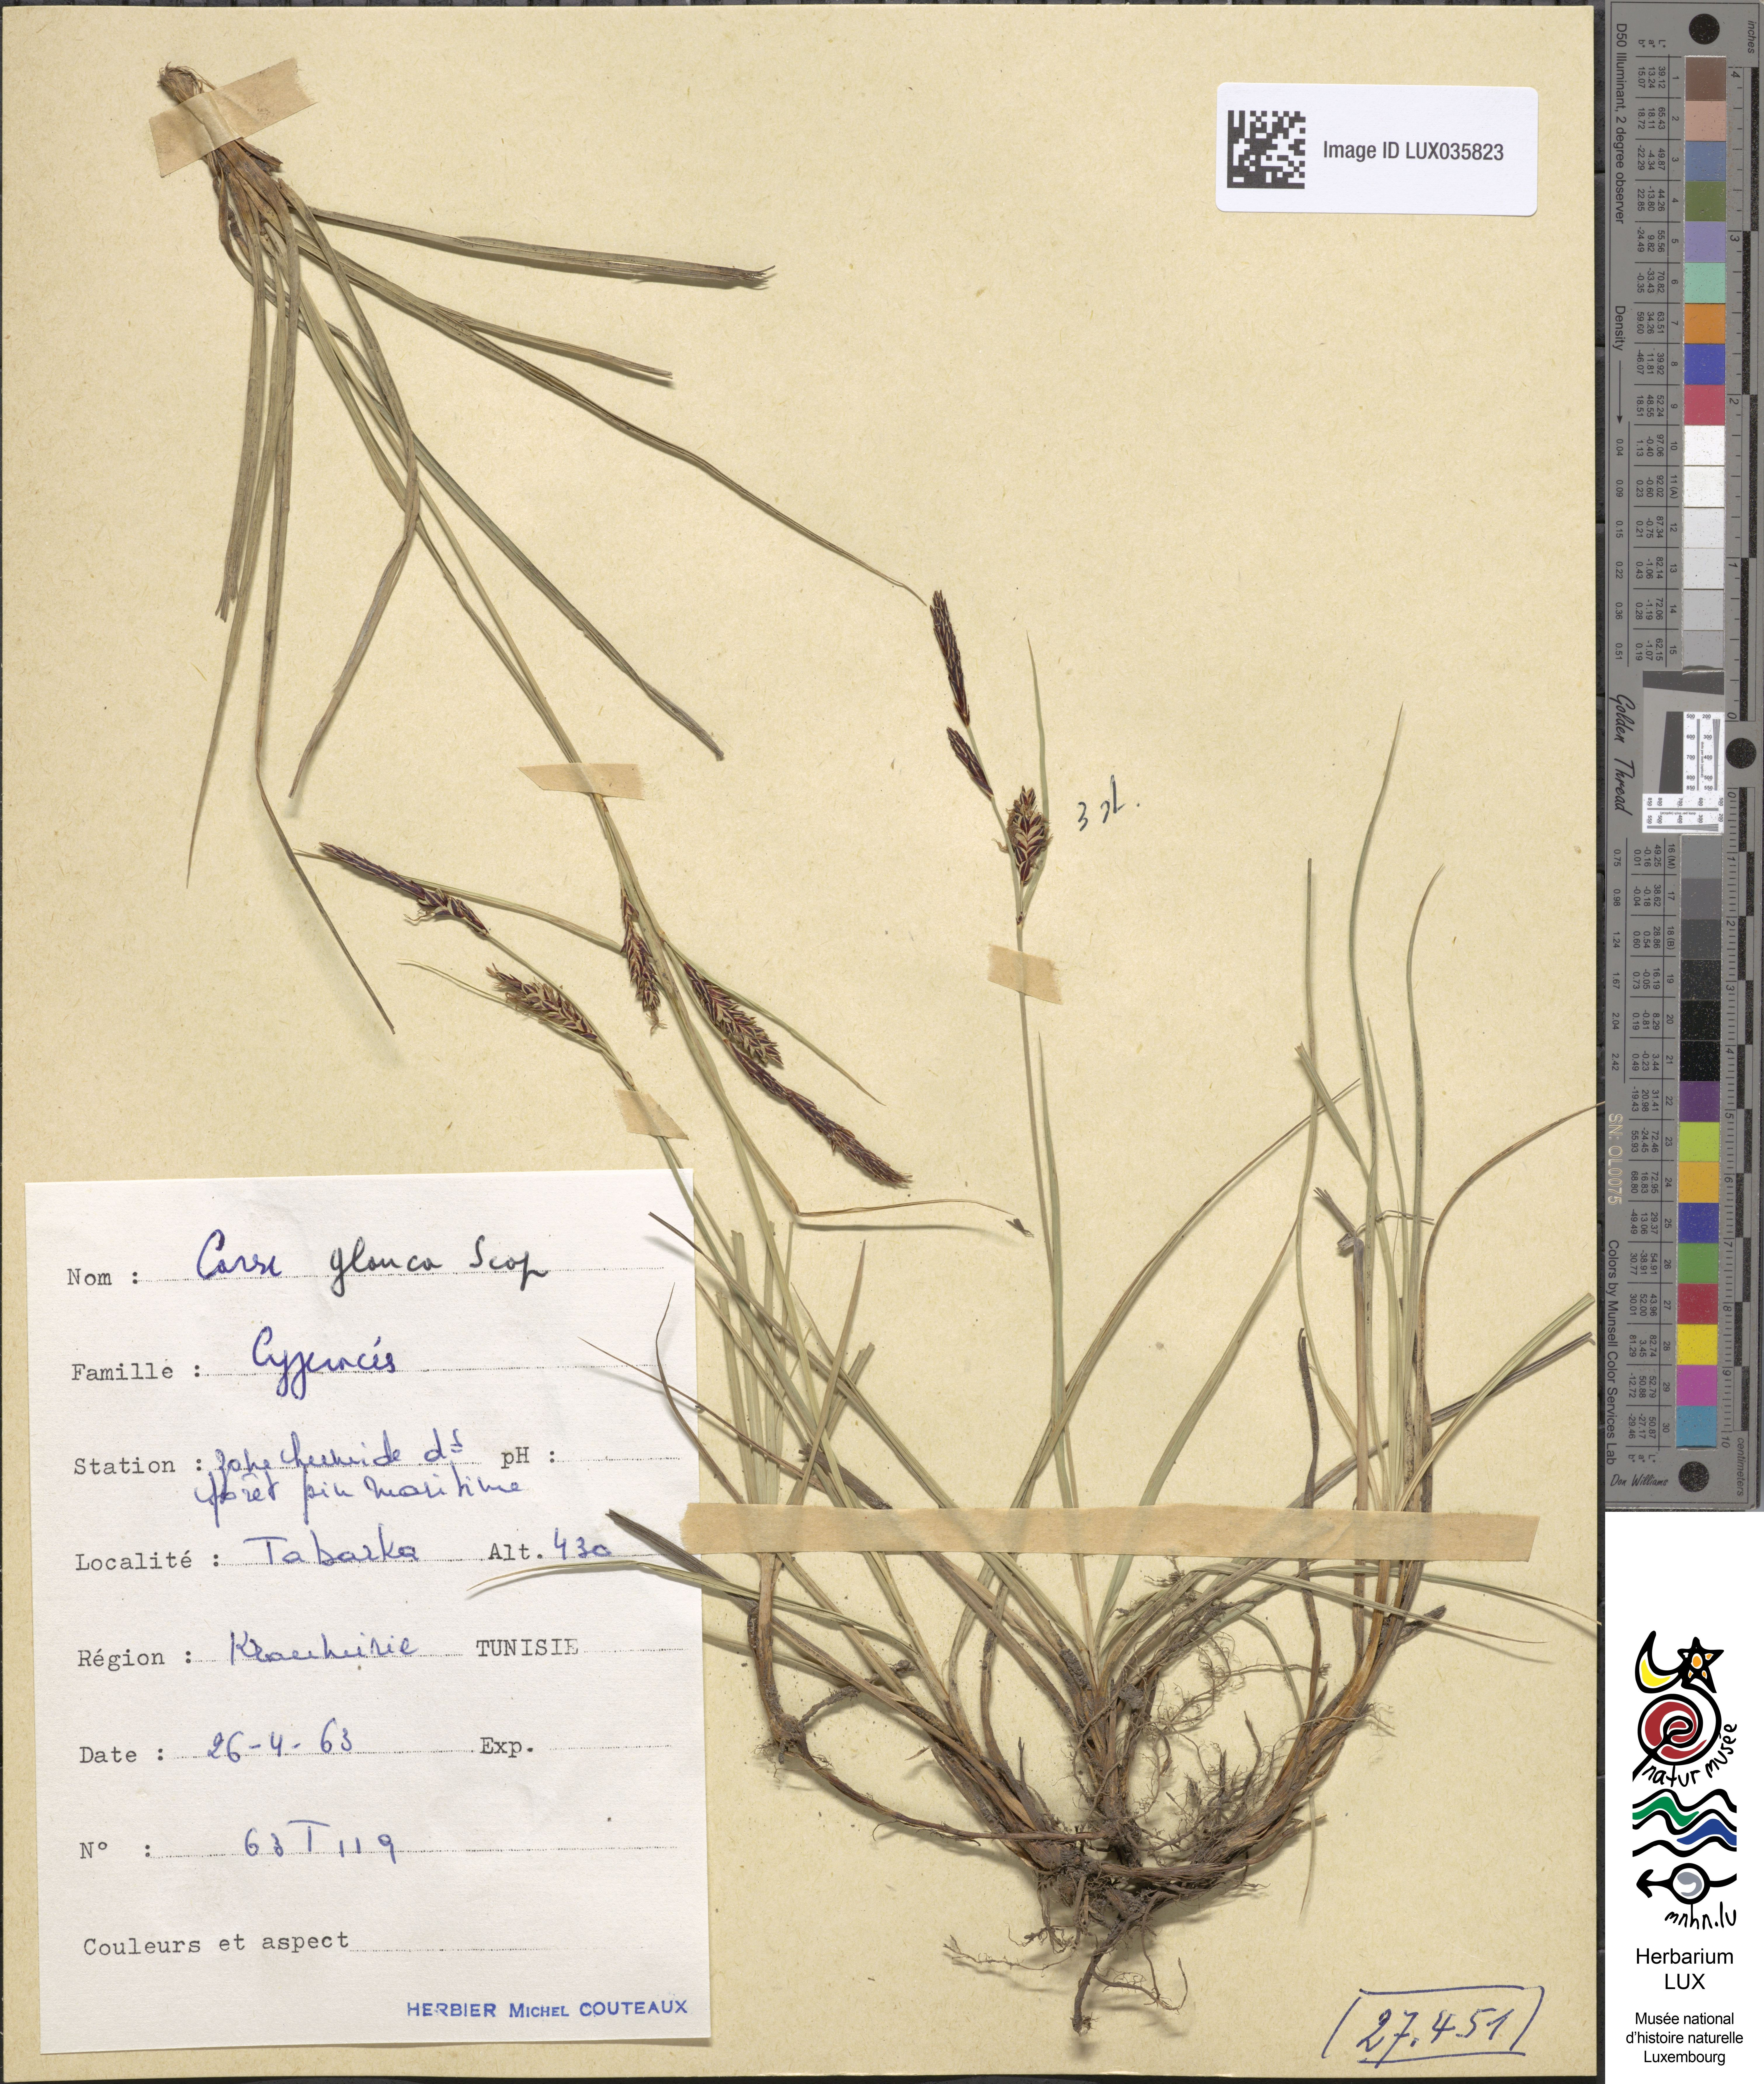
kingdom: Plantae
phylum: Tracheophyta
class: Liliopsida
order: Poales
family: Cyperaceae
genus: Carex
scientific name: Carex flacca
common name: Glaucous sedge
